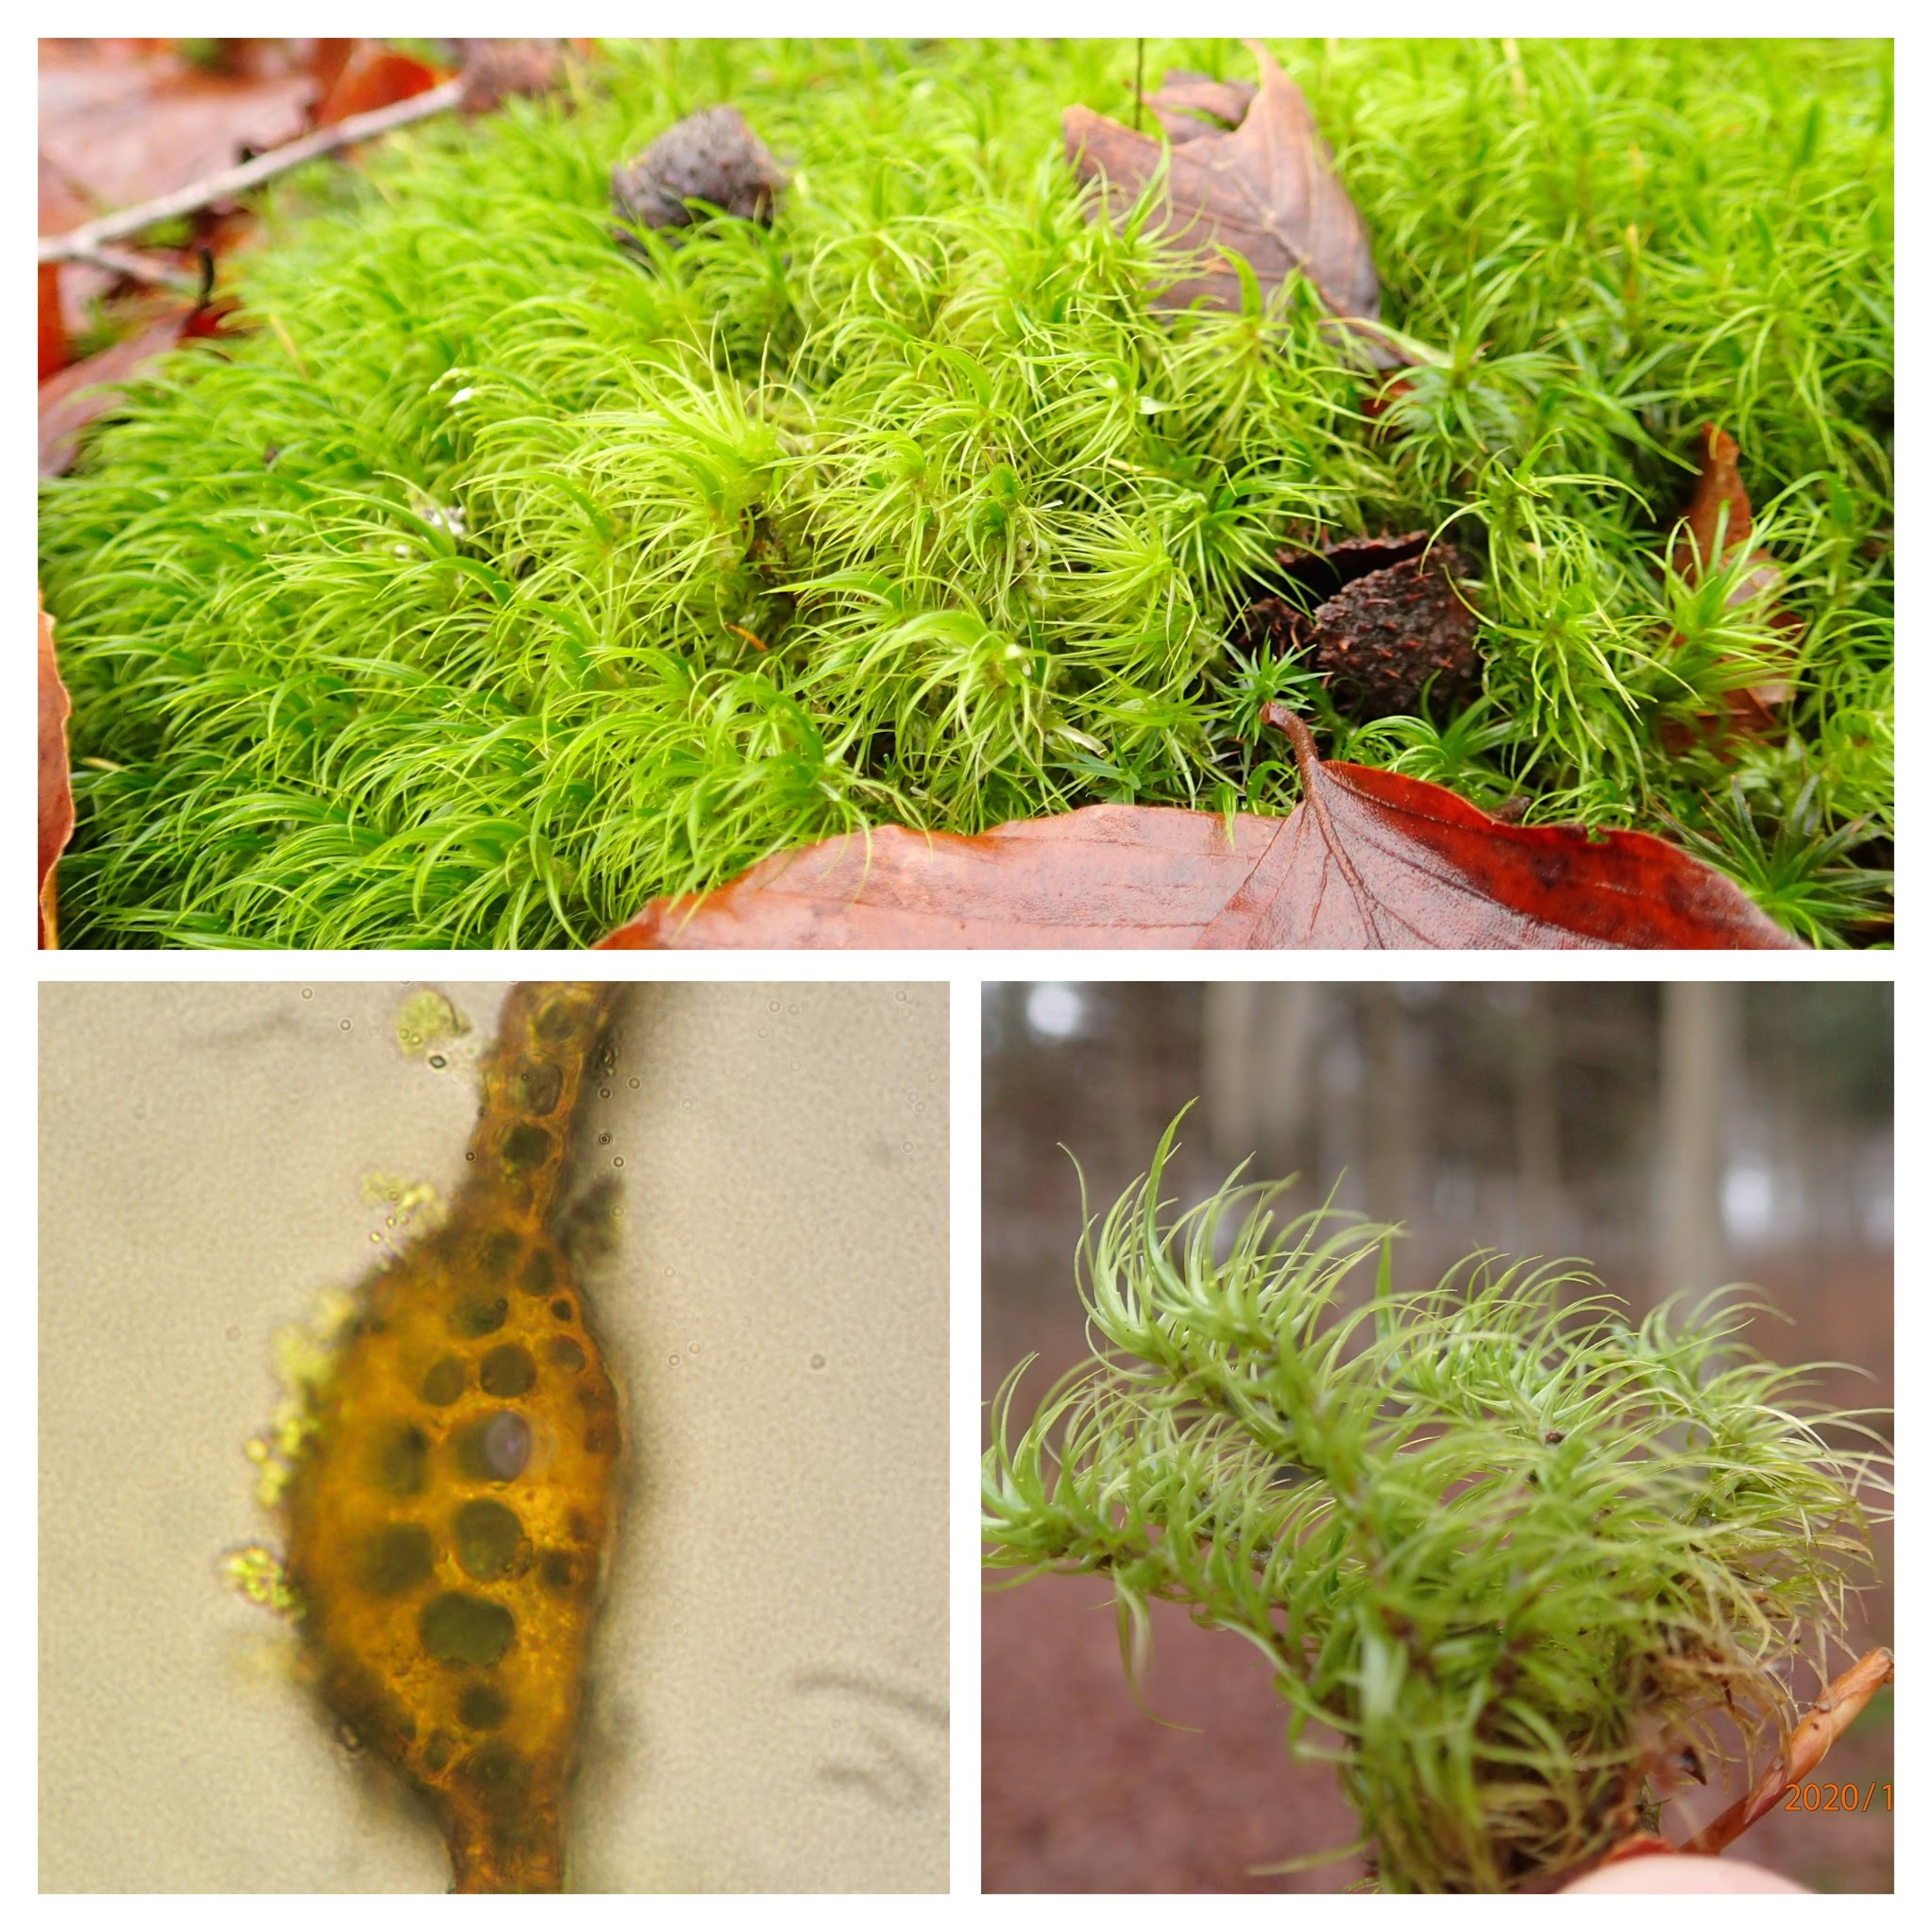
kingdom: Plantae
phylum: Bryophyta
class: Bryopsida
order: Dicranales
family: Dicranaceae
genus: Dicranum
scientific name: Dicranum majus
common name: Stor kløvtand
